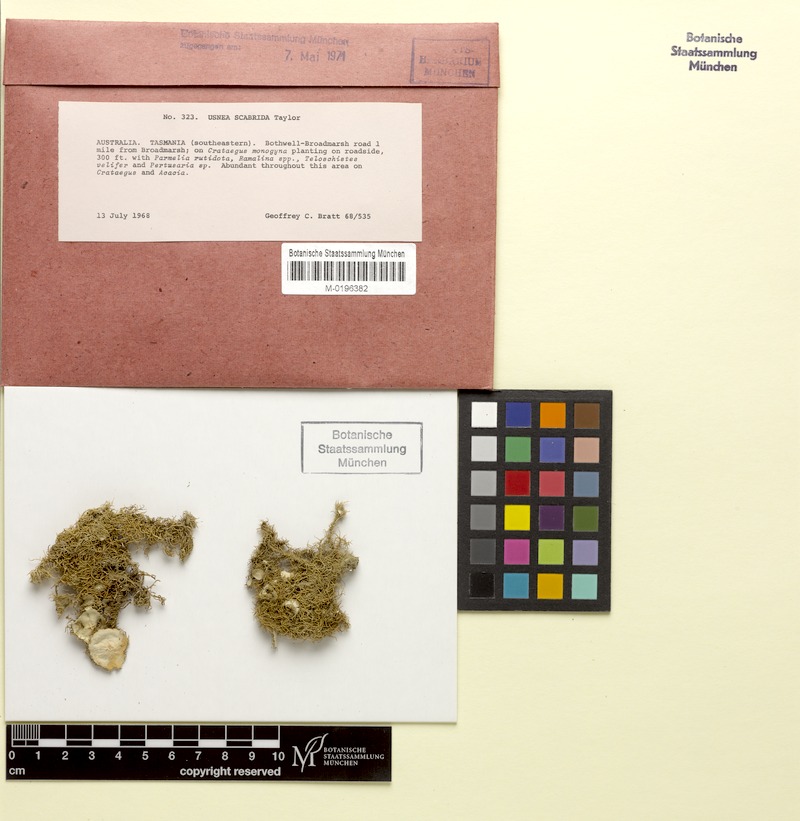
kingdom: Fungi
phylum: Ascomycota
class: Lecanoromycetes
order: Lecanorales
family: Parmeliaceae
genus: Usnea
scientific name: Usnea scabrida
